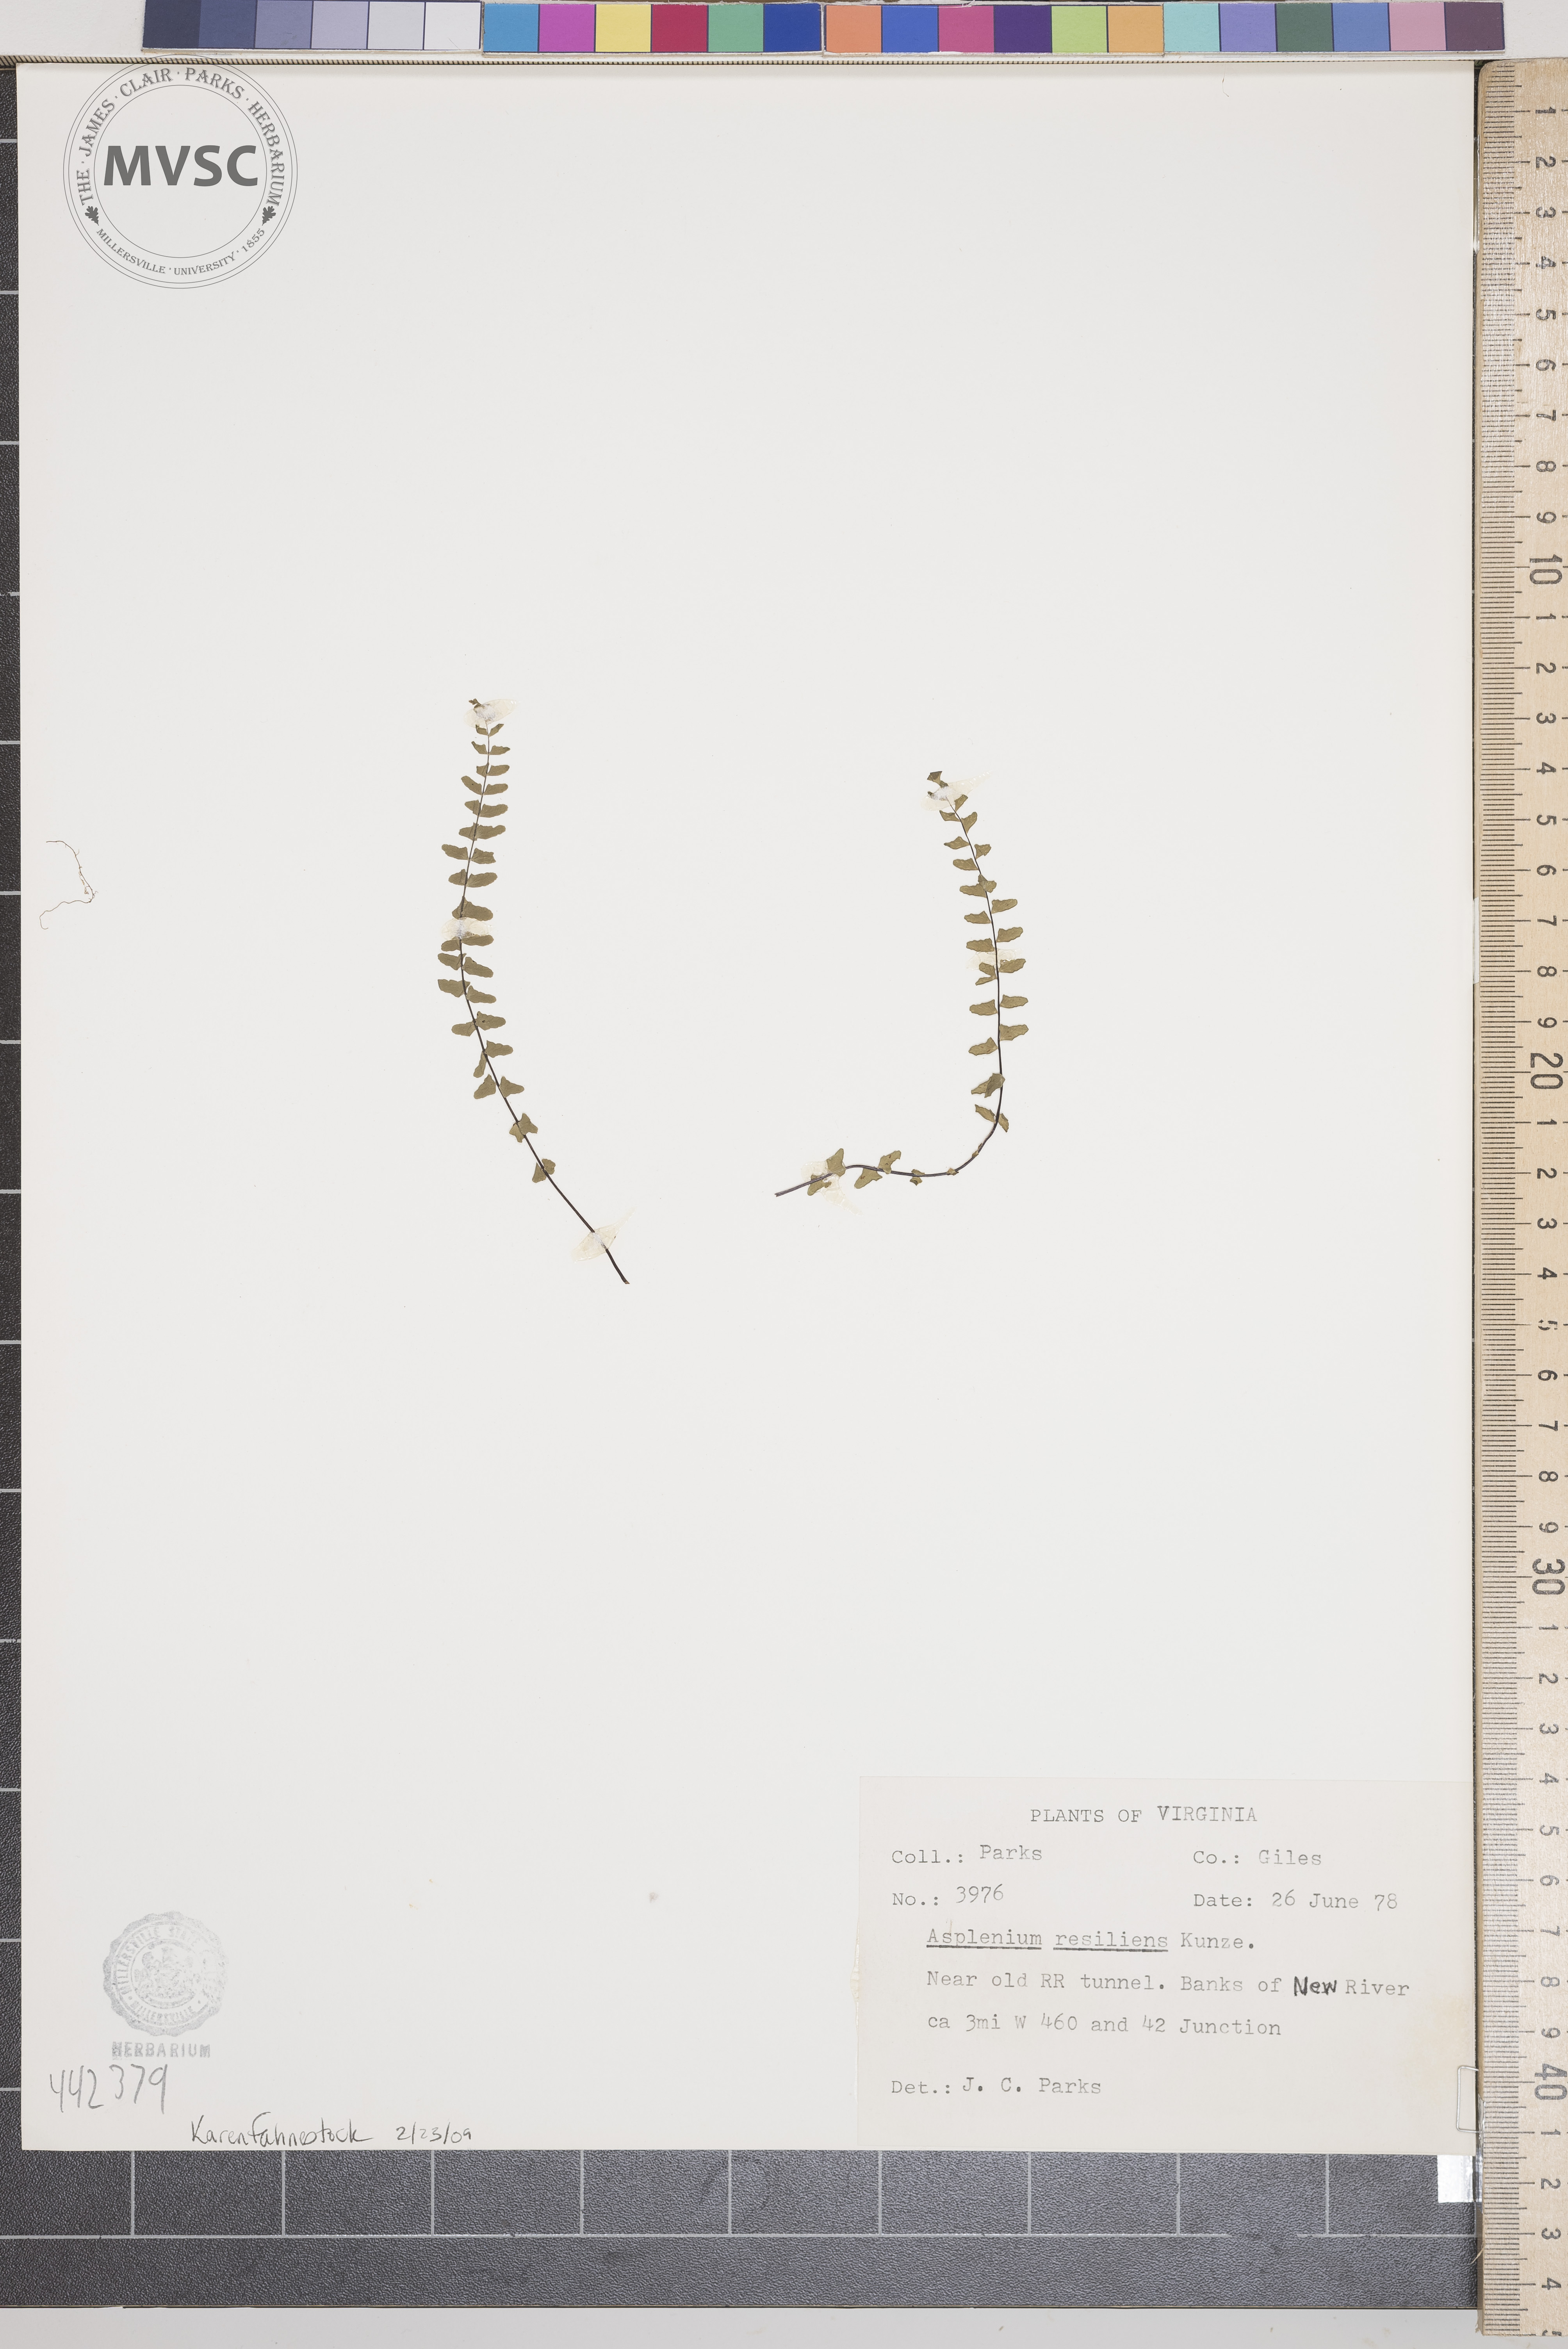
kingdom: Plantae
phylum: Tracheophyta
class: Polypodiopsida
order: Polypodiales
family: Aspleniaceae
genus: Asplenium
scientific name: Asplenium resiliens
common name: Blackstem spleenwort
